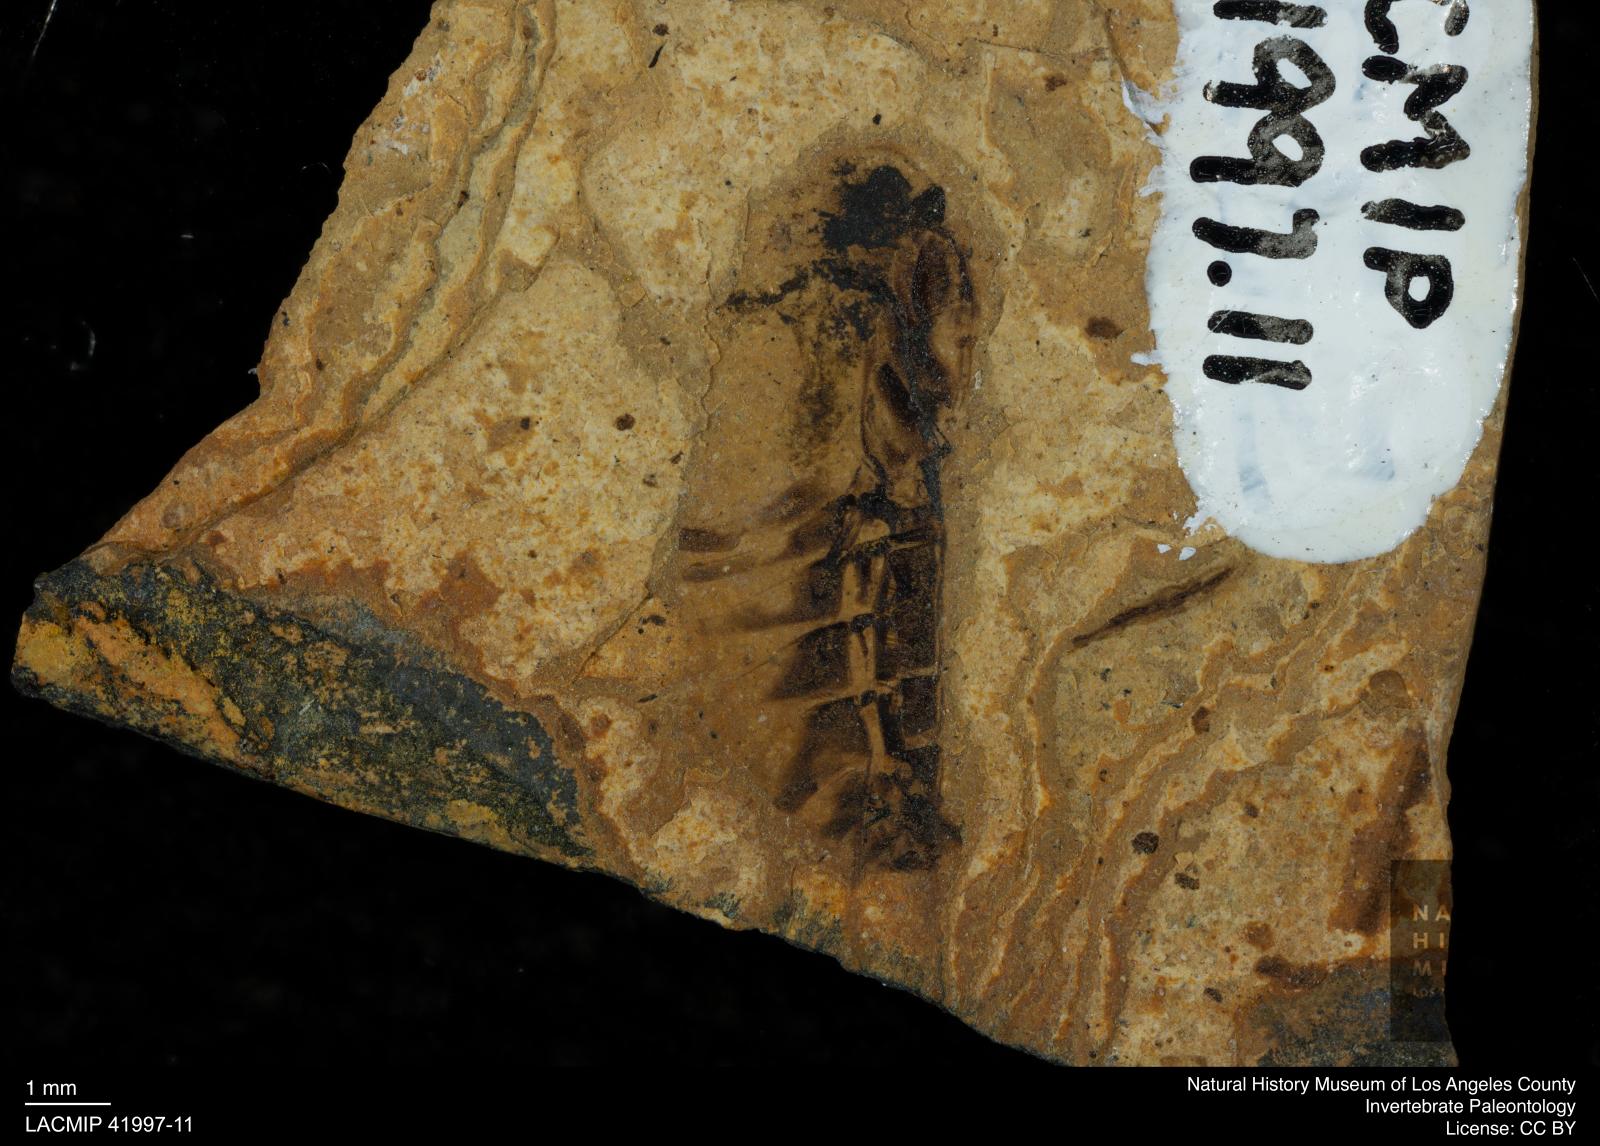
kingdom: Animalia
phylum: Arthropoda
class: Insecta
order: Hemiptera
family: Notonectidae
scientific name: Notonectidae
